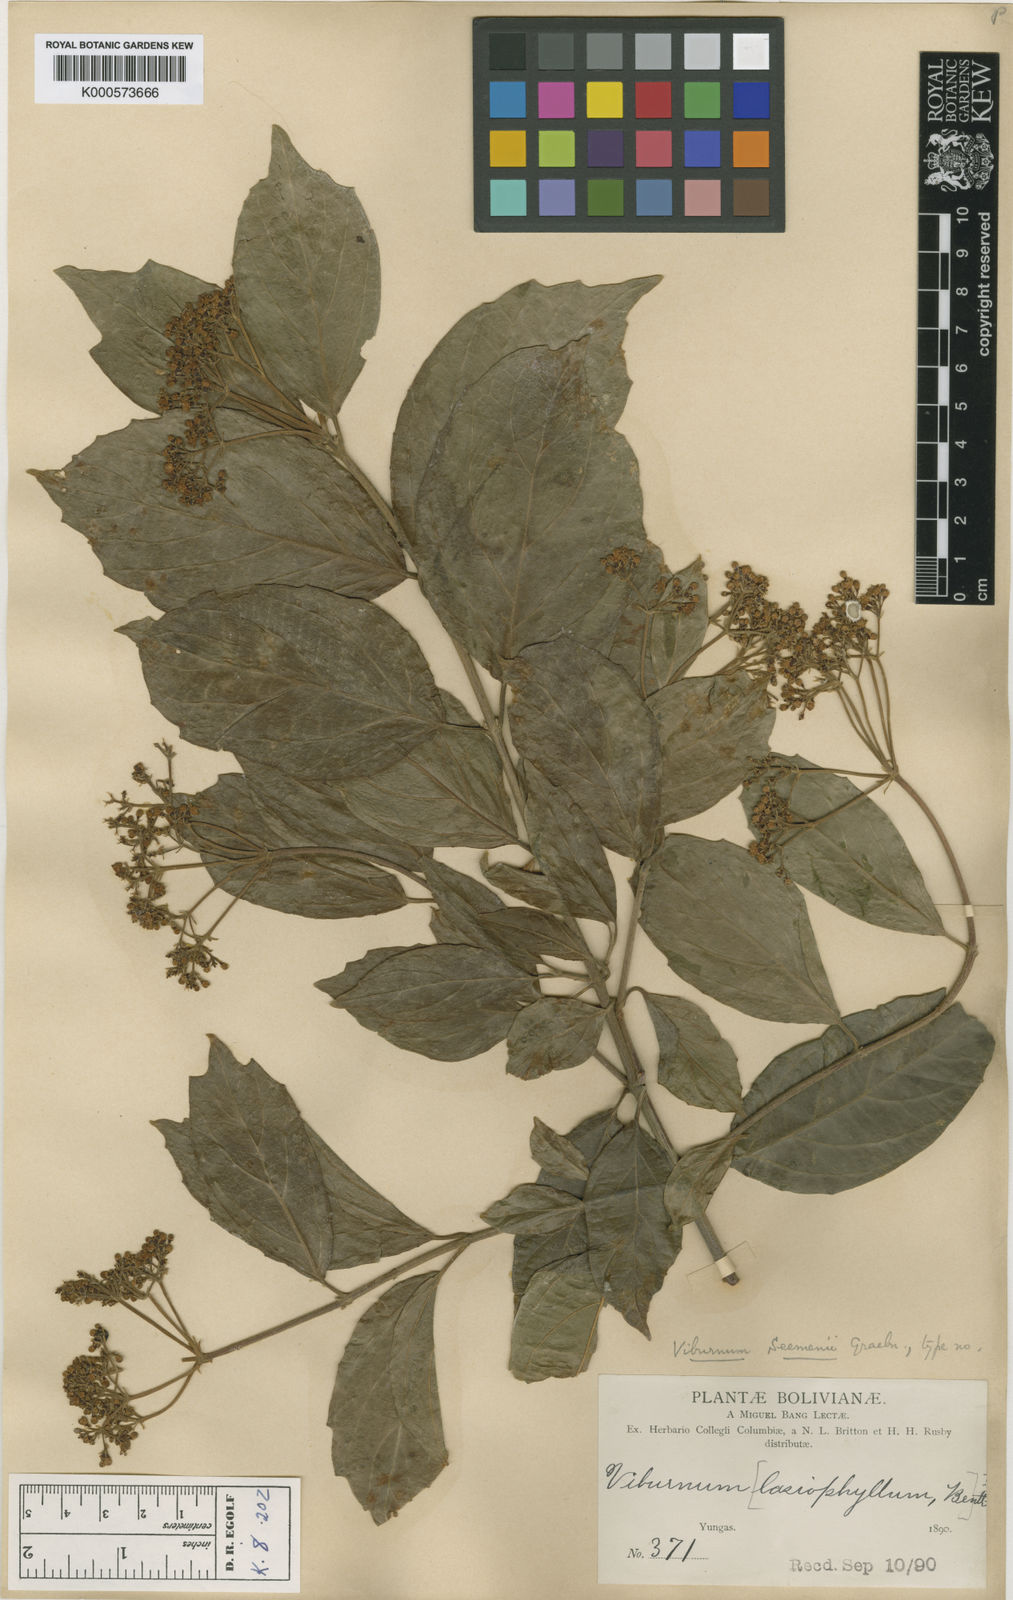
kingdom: Plantae
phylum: Tracheophyta
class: Magnoliopsida
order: Dipsacales
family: Viburnaceae
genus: Viburnum
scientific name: Viburnum seemenii
